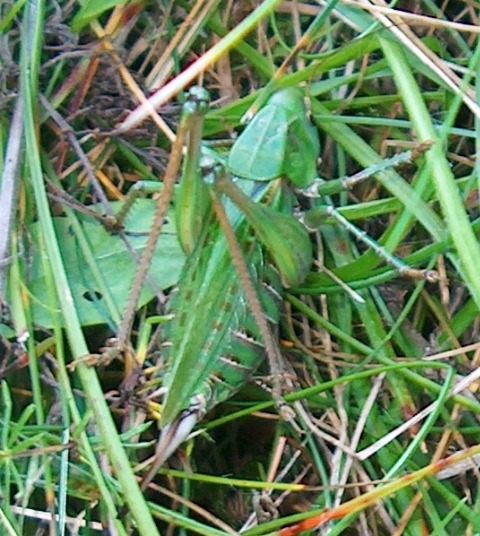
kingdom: Animalia
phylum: Arthropoda
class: Insecta
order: Orthoptera
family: Tettigoniidae
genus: Decticus
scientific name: Decticus verrucivorus
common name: Vortebider
